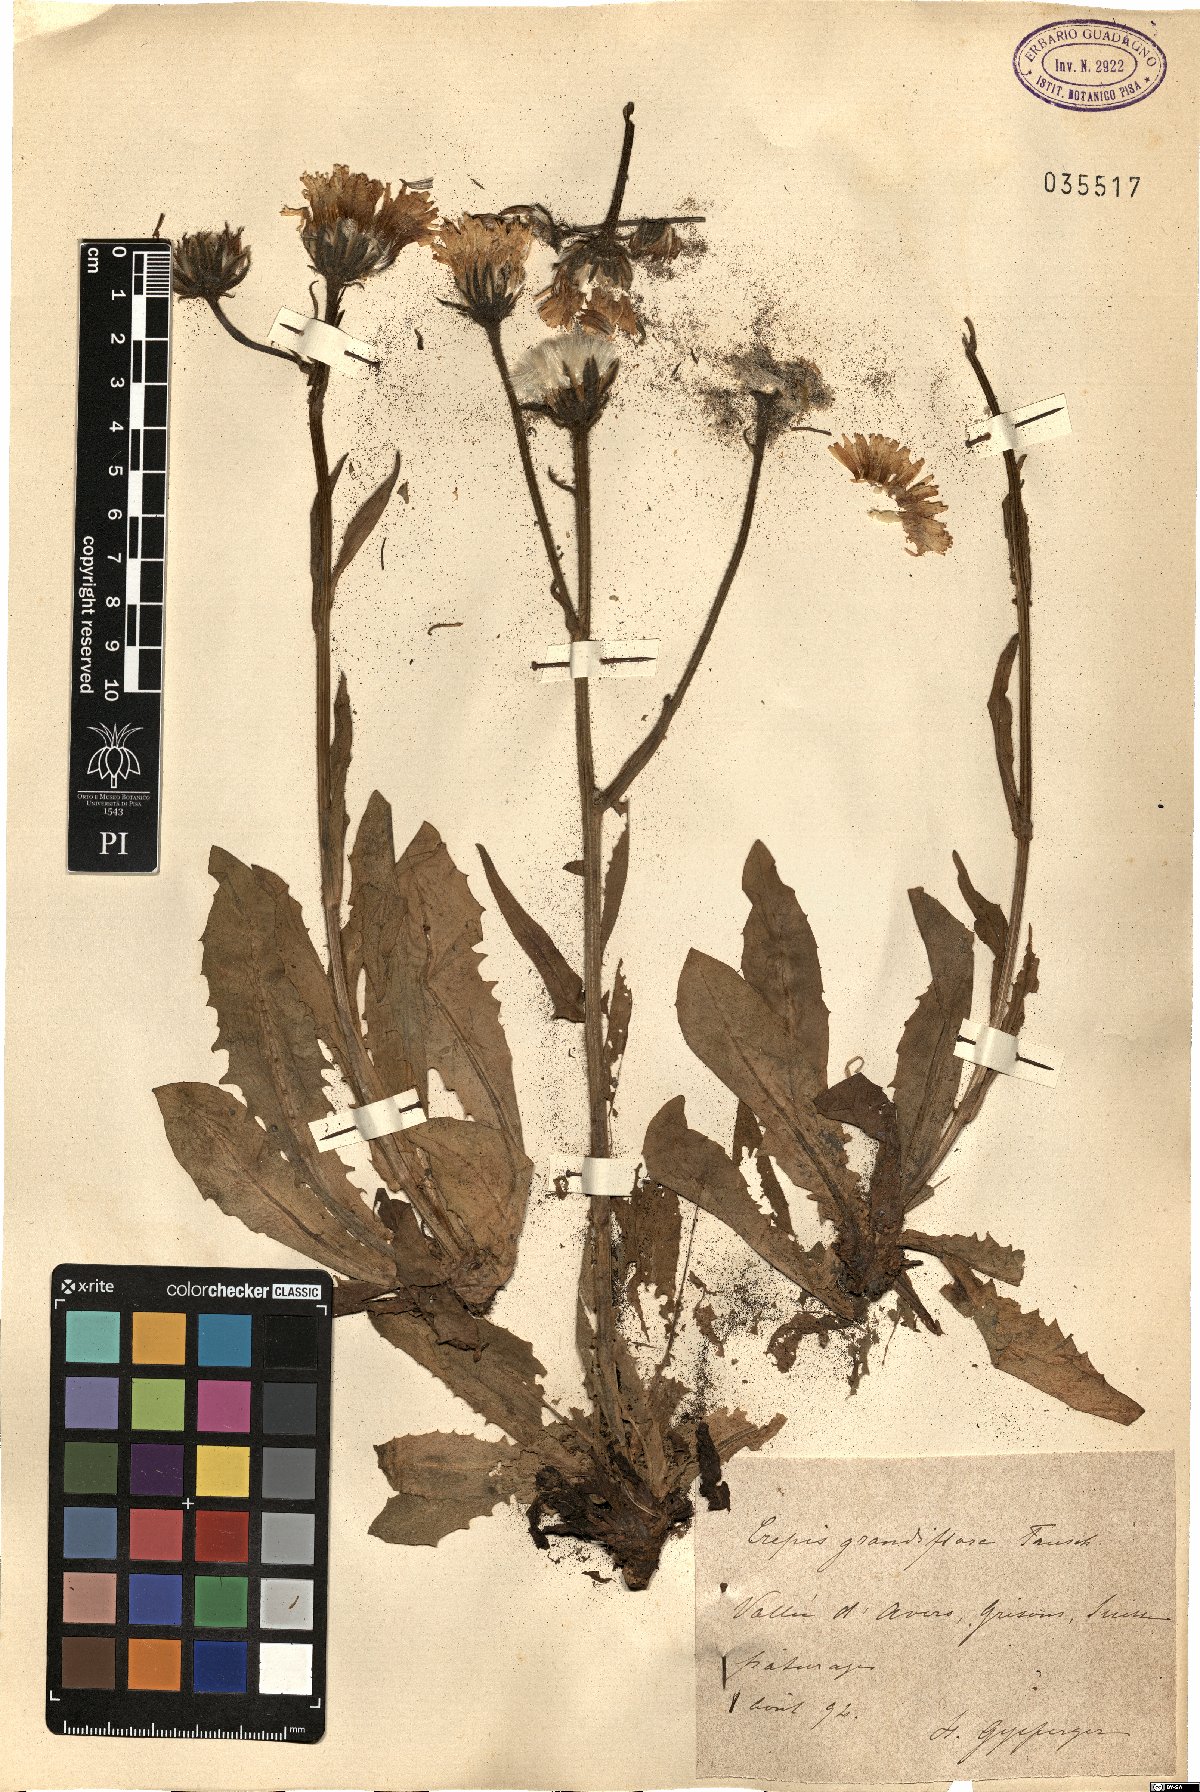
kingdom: Plantae
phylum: Tracheophyta
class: Magnoliopsida
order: Asterales
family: Asteraceae
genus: Crepis
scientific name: Crepis pyrenaica
